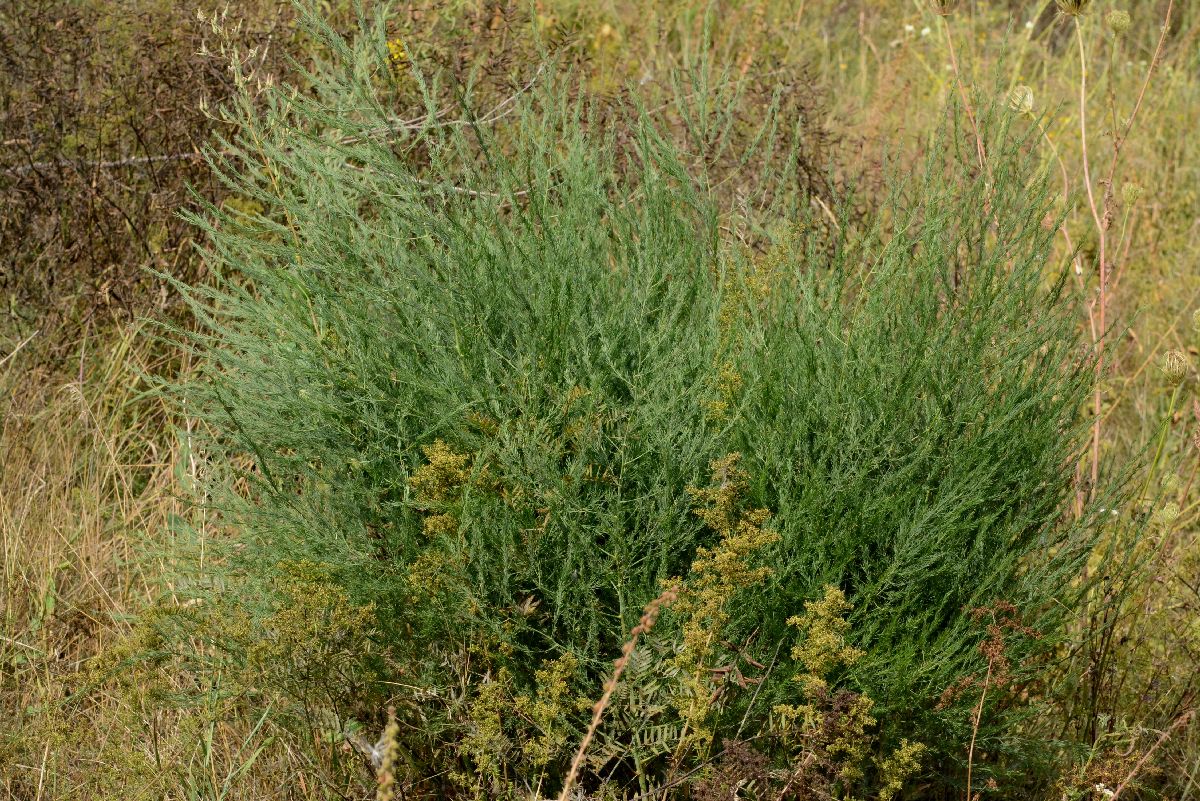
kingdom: Plantae
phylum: Tracheophyta
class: Liliopsida
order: Asparagales
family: Asparagaceae
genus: Asparagus
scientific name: Asparagus officinalis
